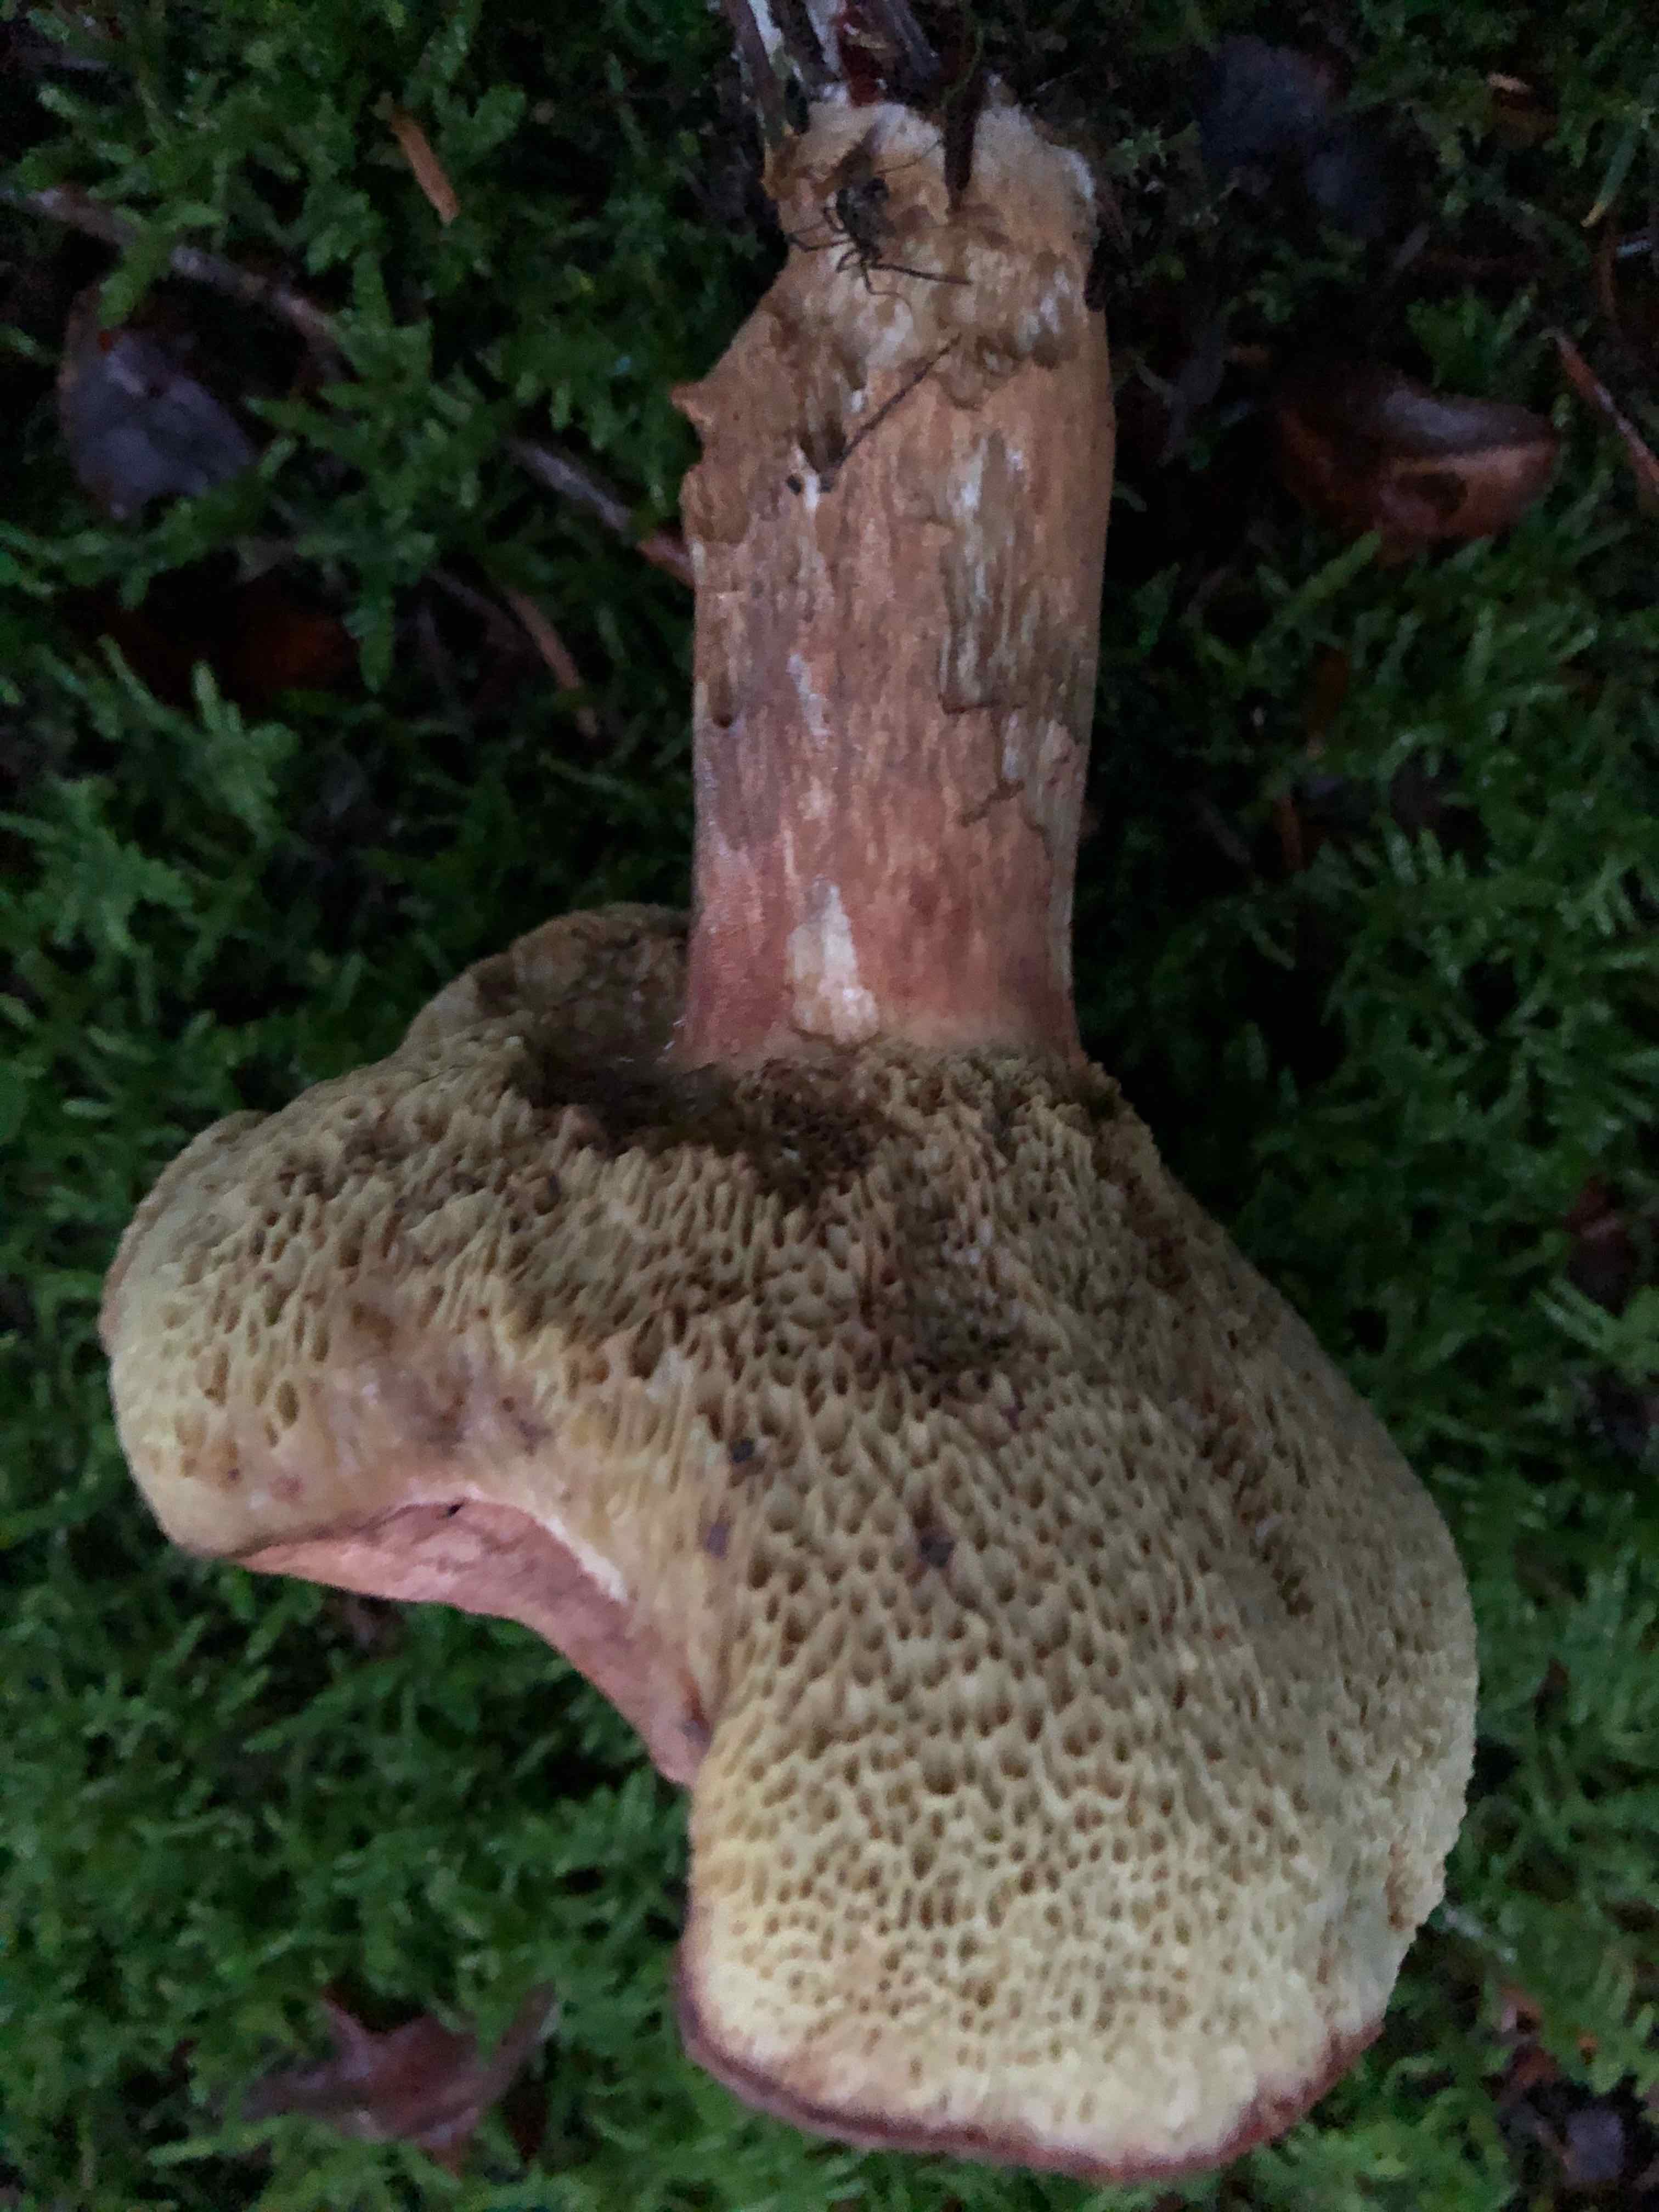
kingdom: Fungi
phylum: Basidiomycota
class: Agaricomycetes
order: Boletales
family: Boletaceae
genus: Imleria
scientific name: Imleria badia
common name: brunstokket rørhat
